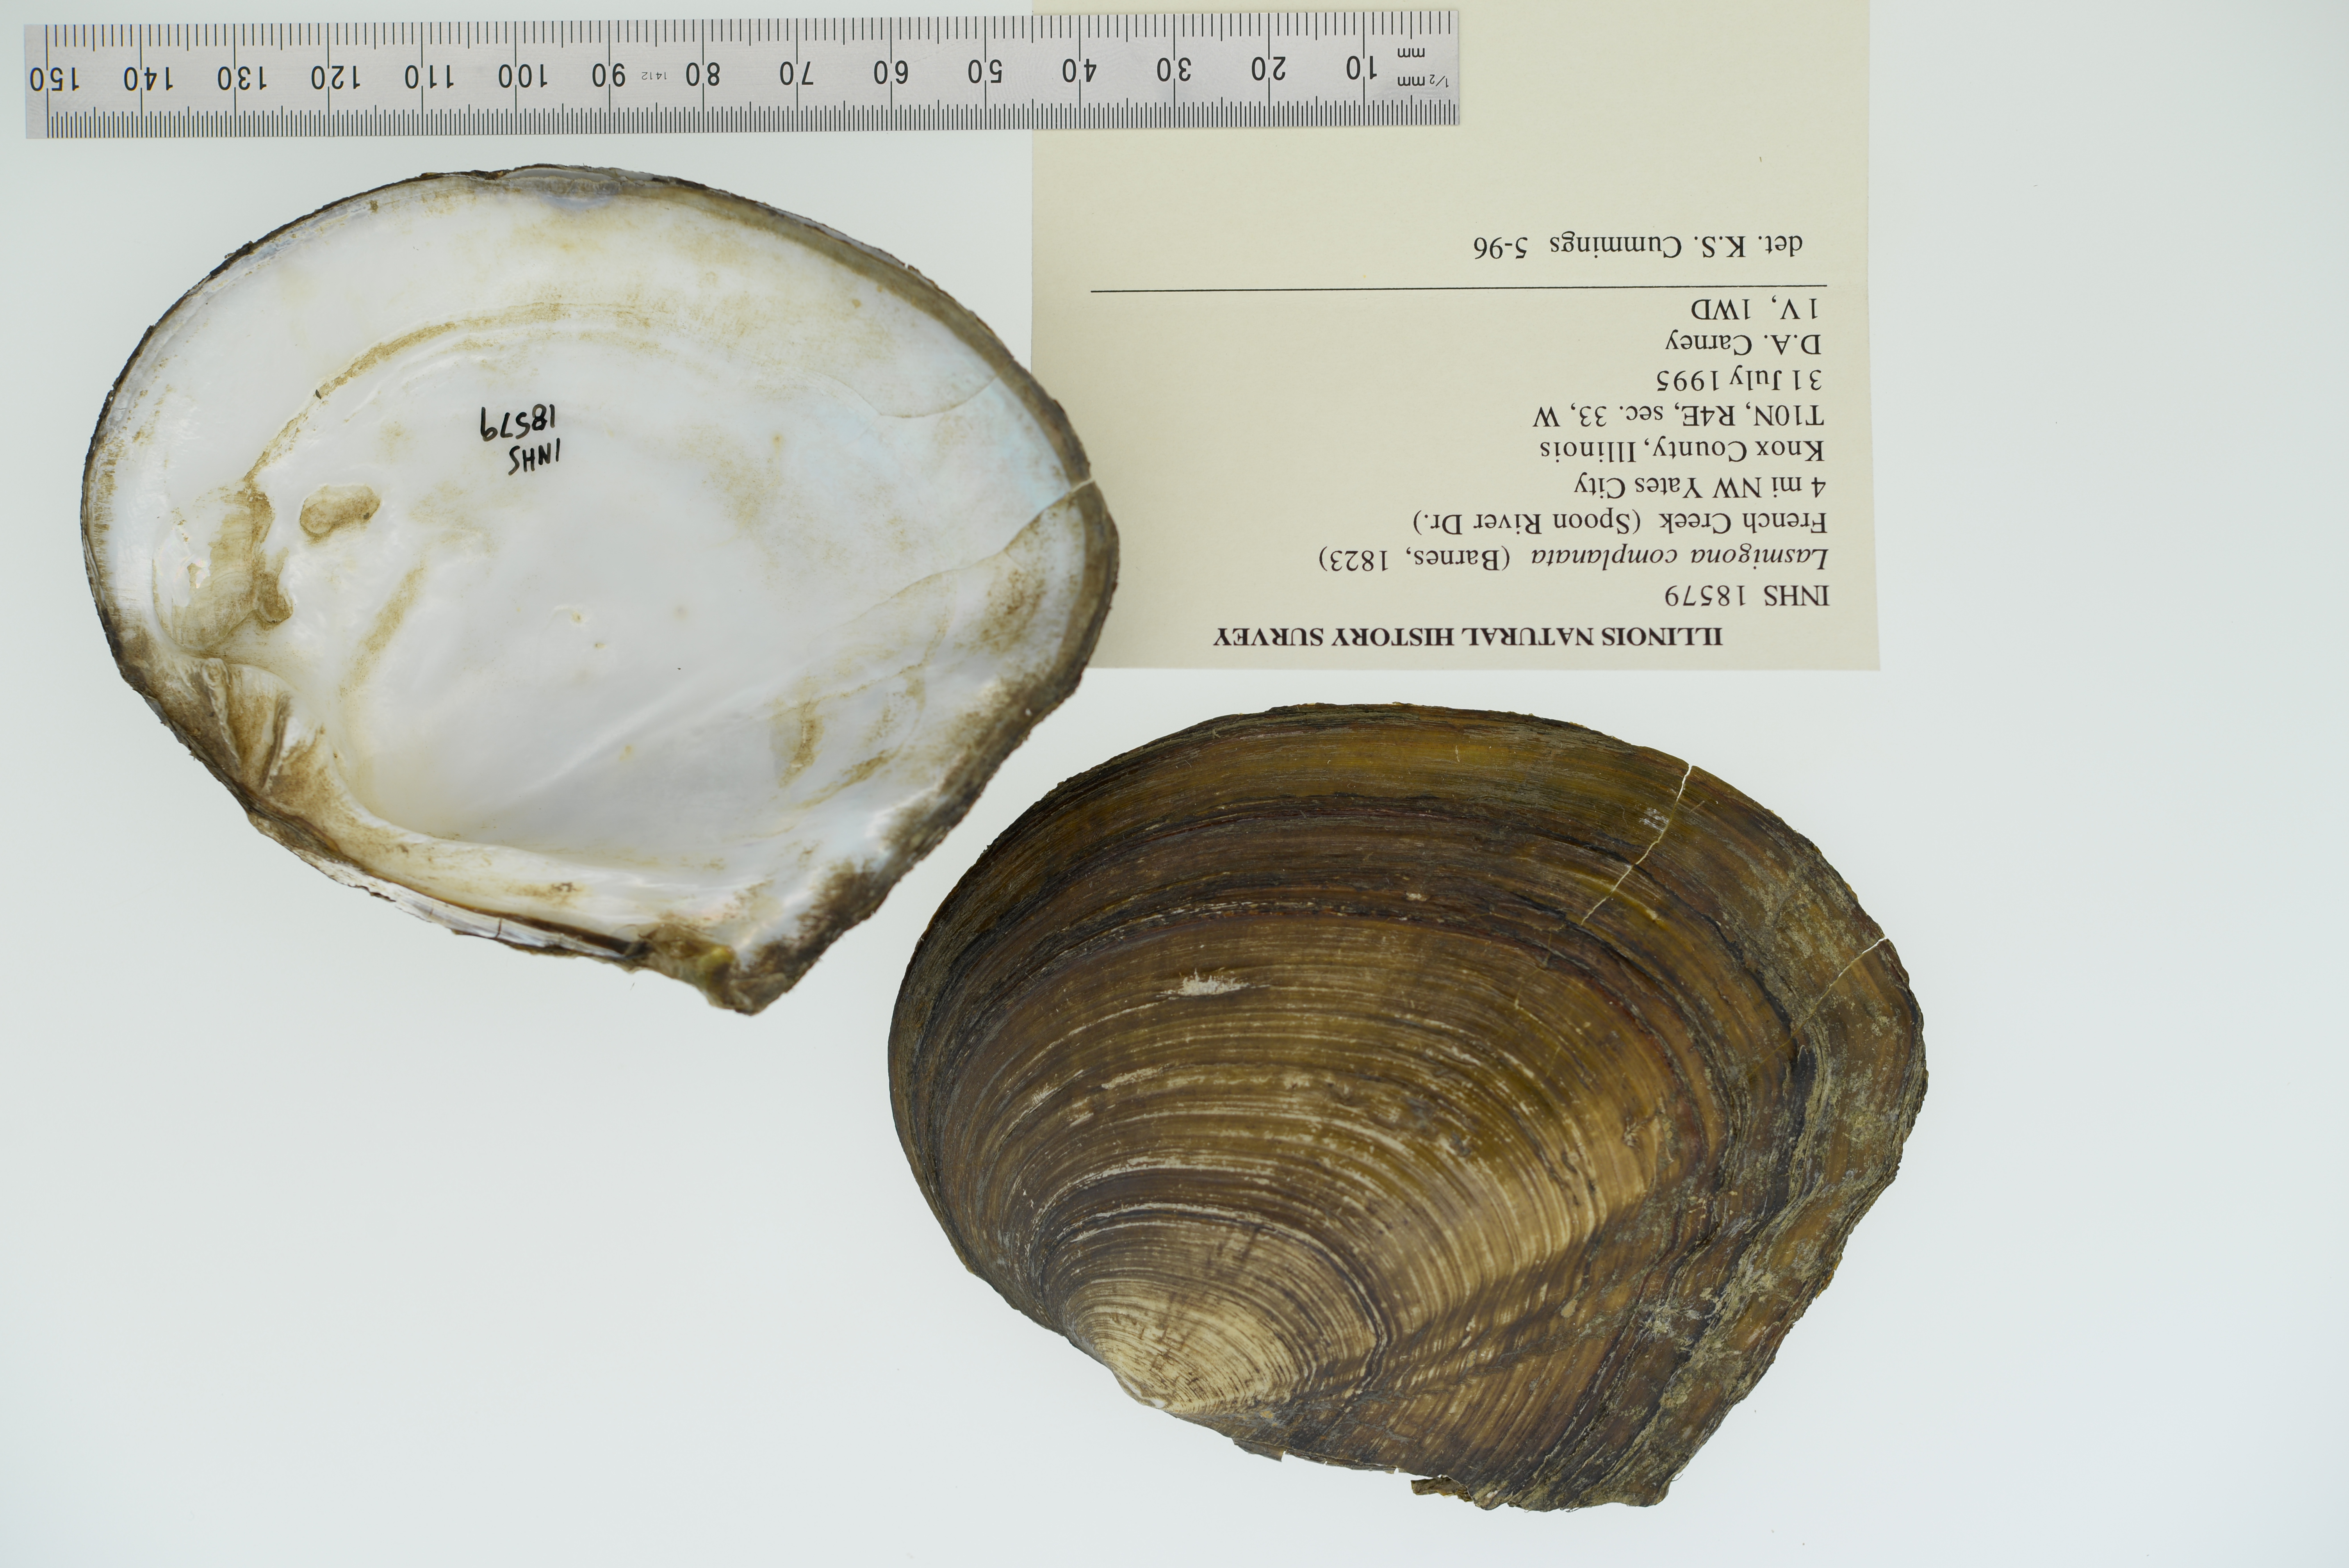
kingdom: Animalia
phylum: Mollusca
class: Bivalvia
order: Unionida
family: Unionidae
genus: Lasmigona
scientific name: Lasmigona complanata
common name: White heelsplitter
